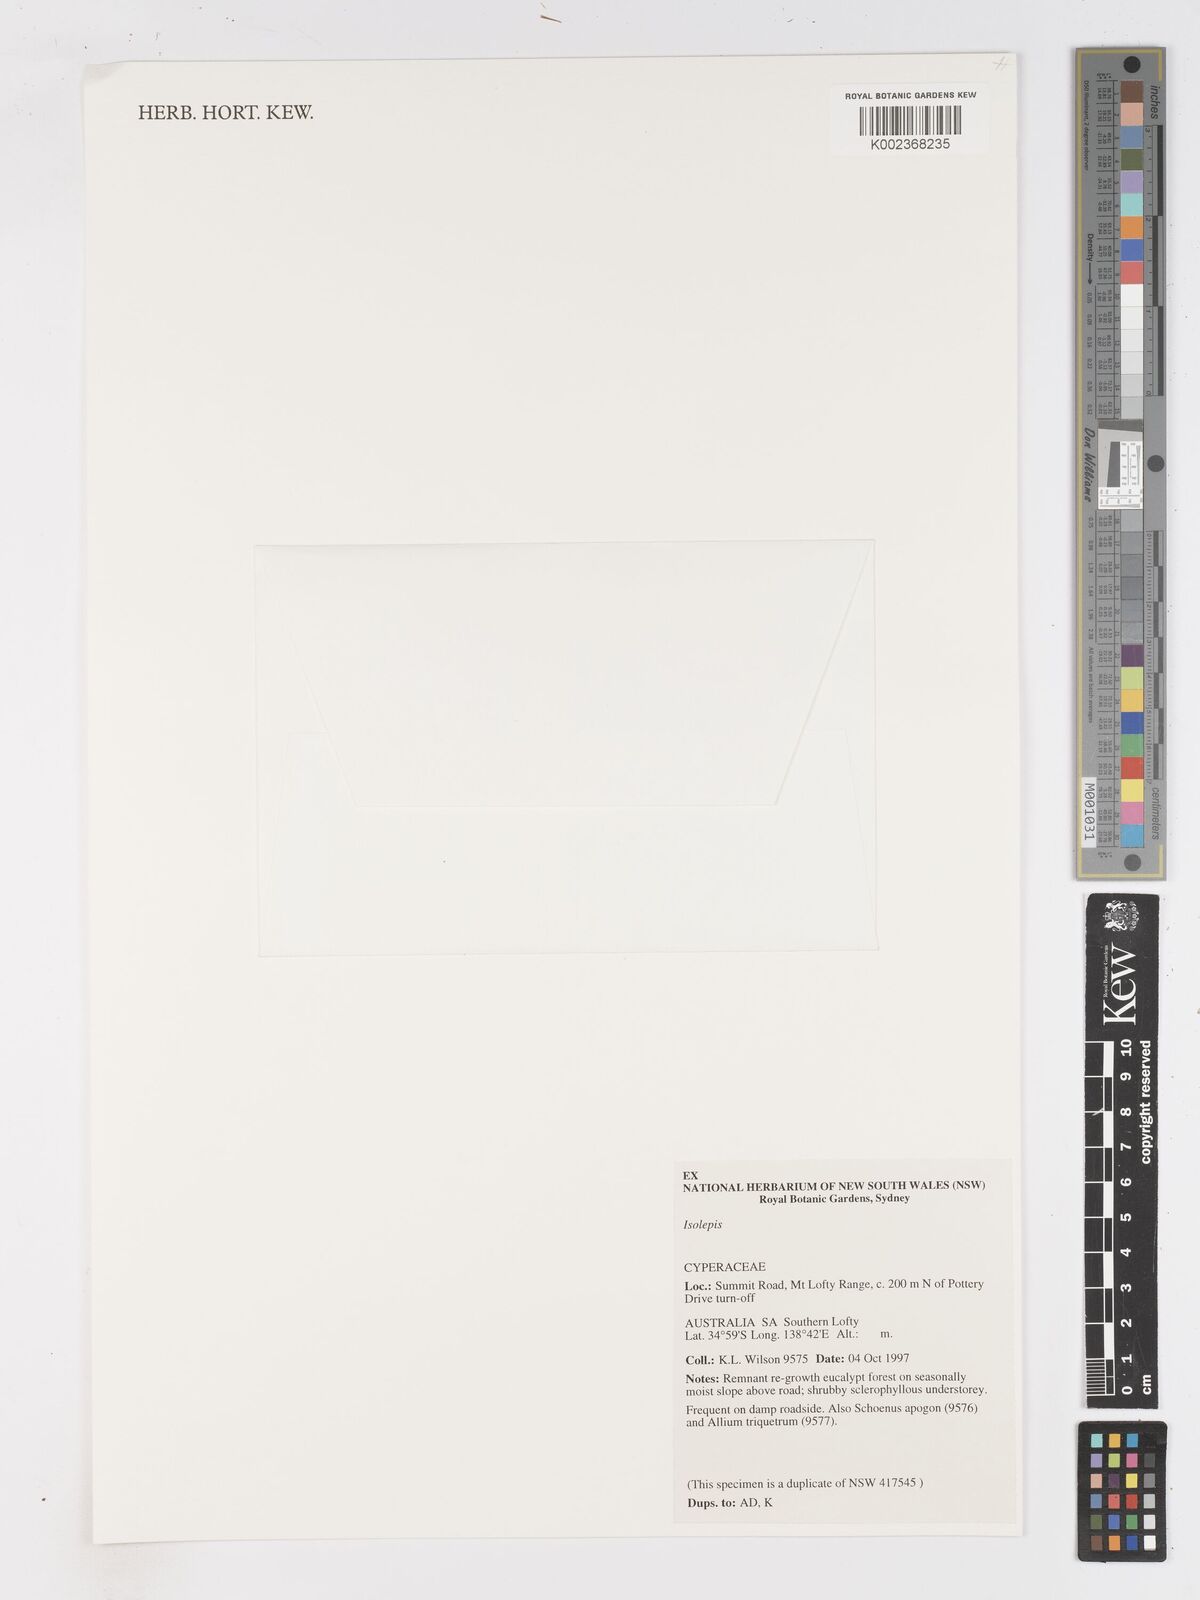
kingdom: Plantae
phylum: Tracheophyta
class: Liliopsida
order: Poales
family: Cyperaceae
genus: Isolepis
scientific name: Isolepis
